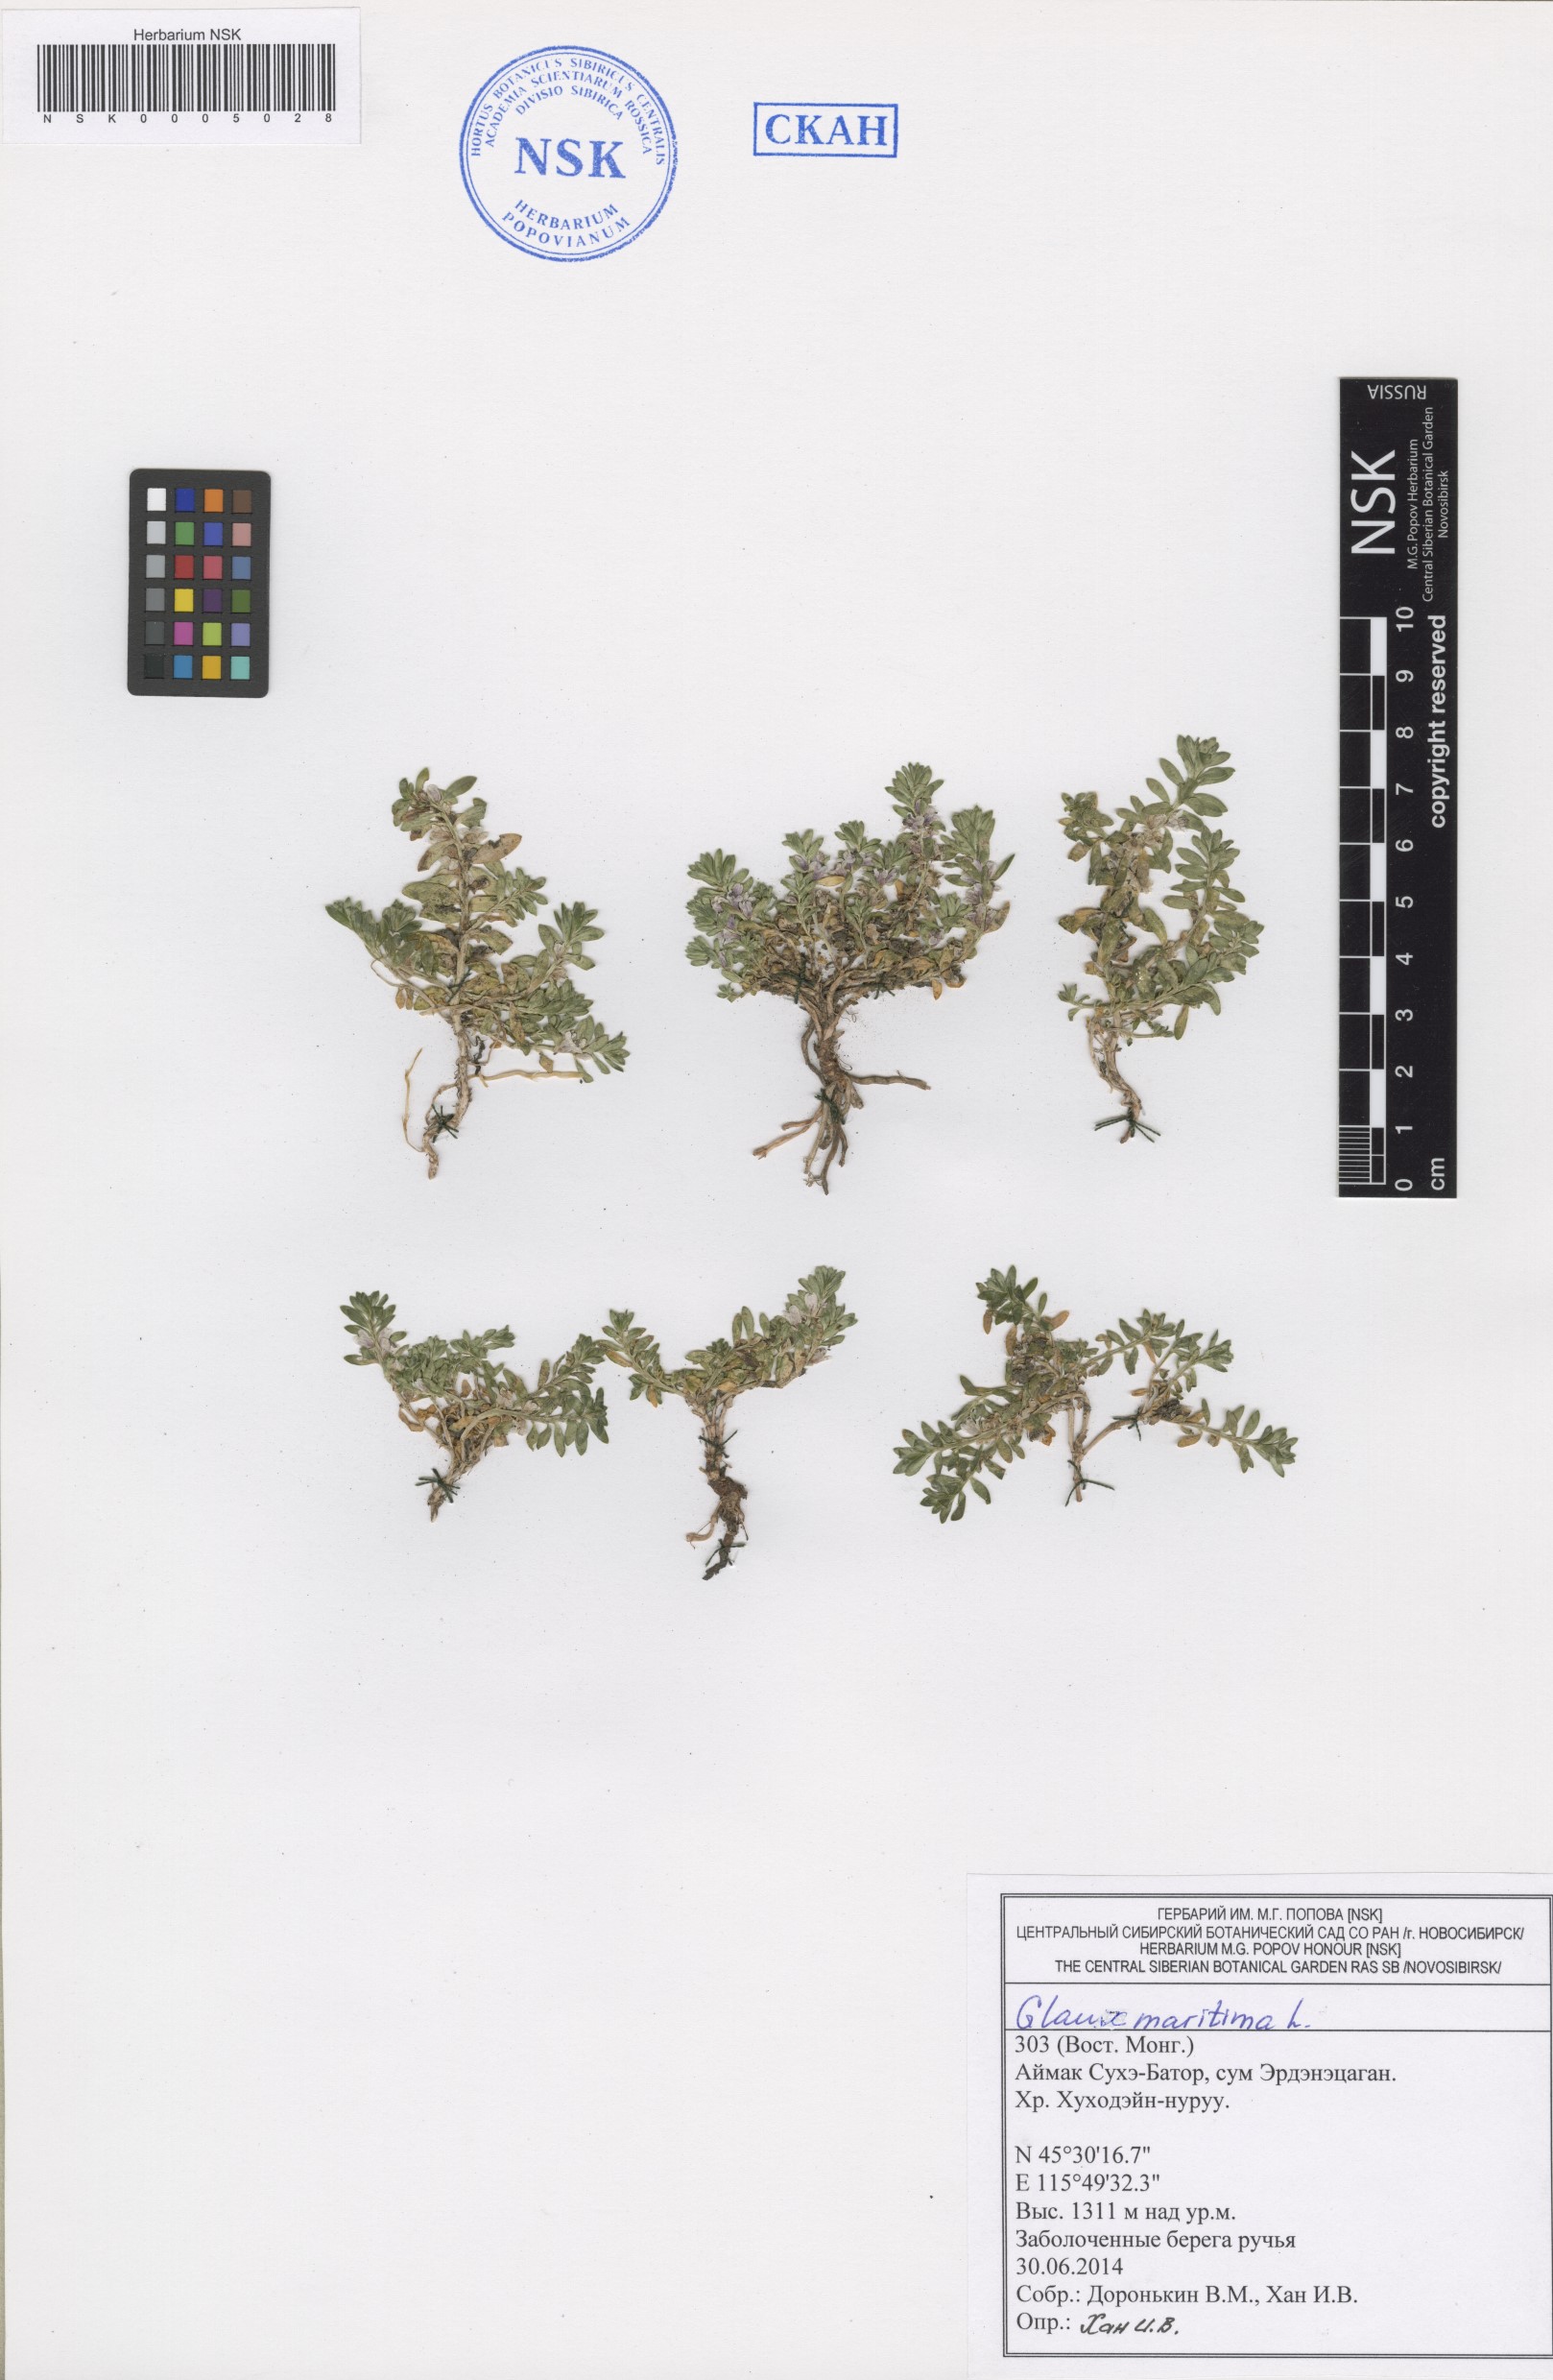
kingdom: Plantae
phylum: Tracheophyta
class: Magnoliopsida
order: Ericales
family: Primulaceae
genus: Lysimachia
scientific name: Lysimachia maritima
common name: Sea milkwort
